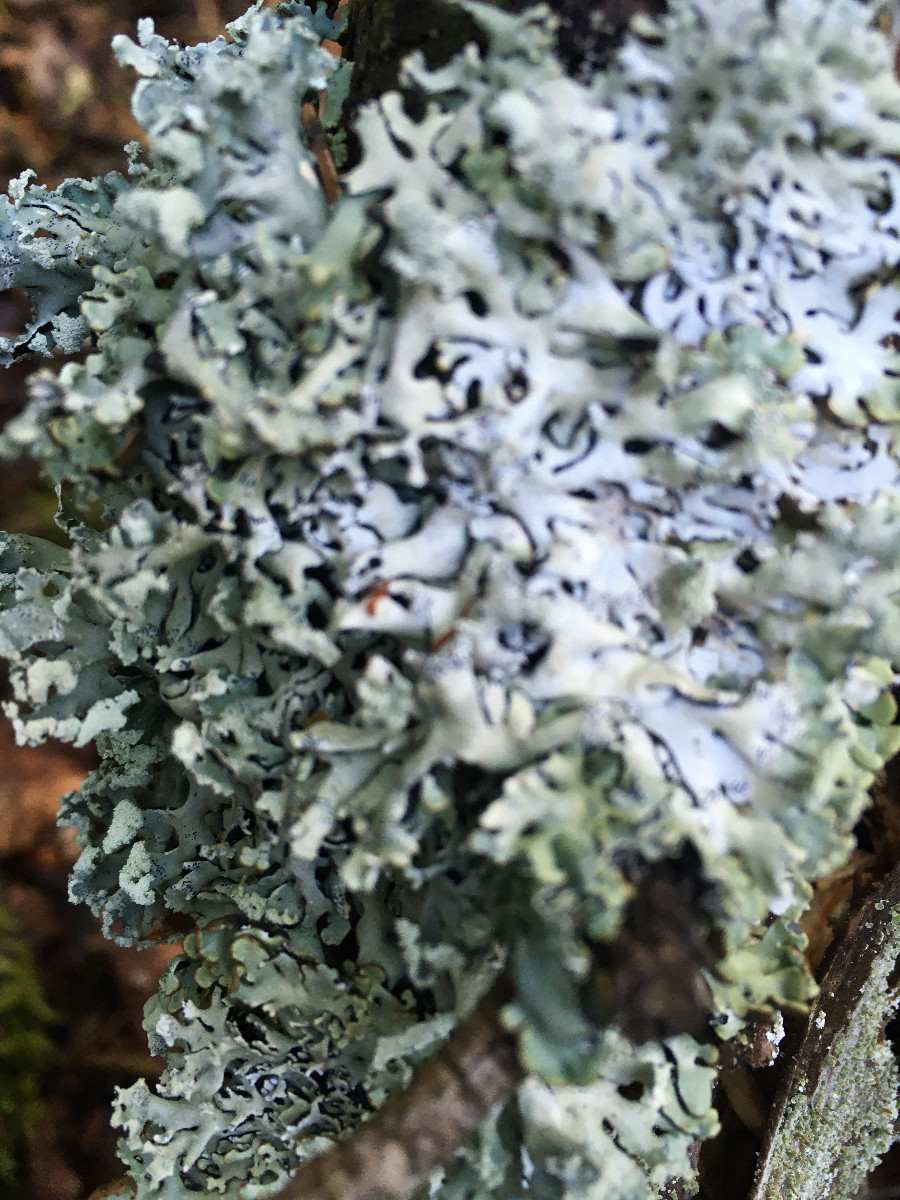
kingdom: Fungi
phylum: Ascomycota
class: Lecanoromycetes
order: Lecanorales
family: Parmeliaceae
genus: Hypogymnia
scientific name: Hypogymnia physodes
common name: almindelig kvistlav
